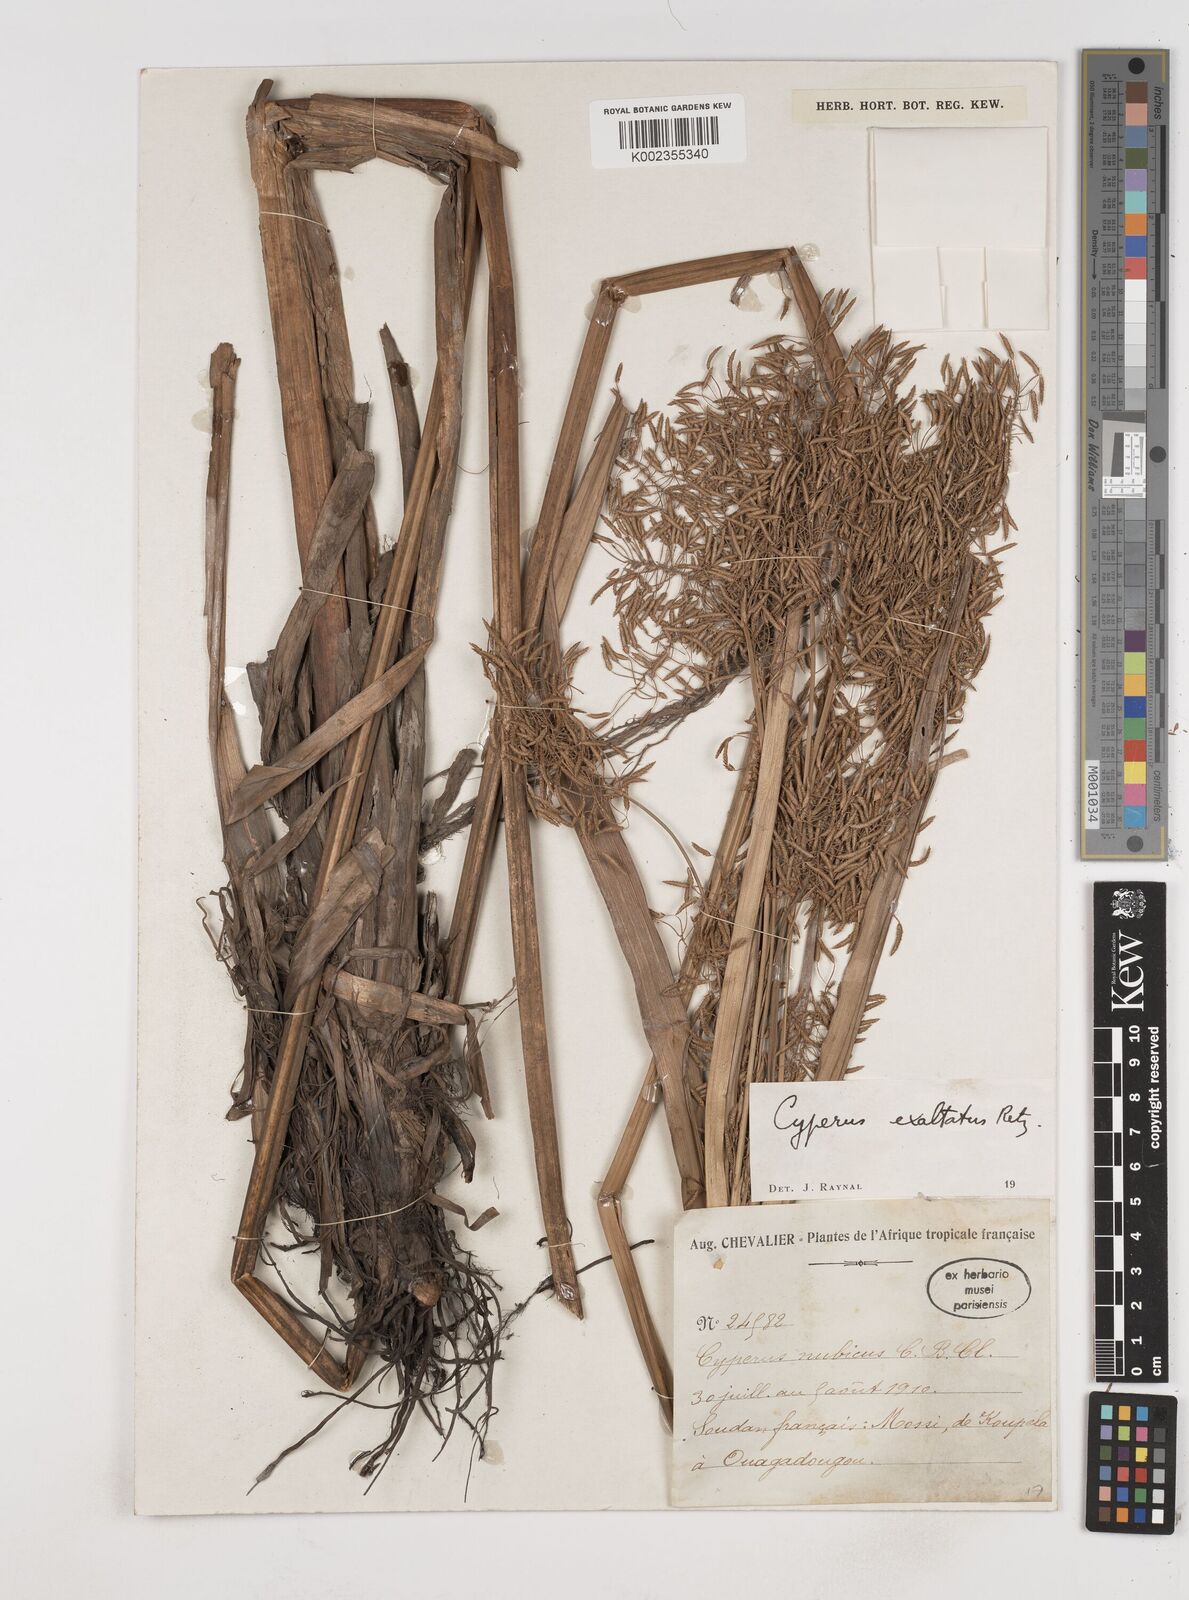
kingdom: Plantae
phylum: Tracheophyta
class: Liliopsida
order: Poales
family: Cyperaceae
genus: Cyperus
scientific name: Cyperus exaltatus
